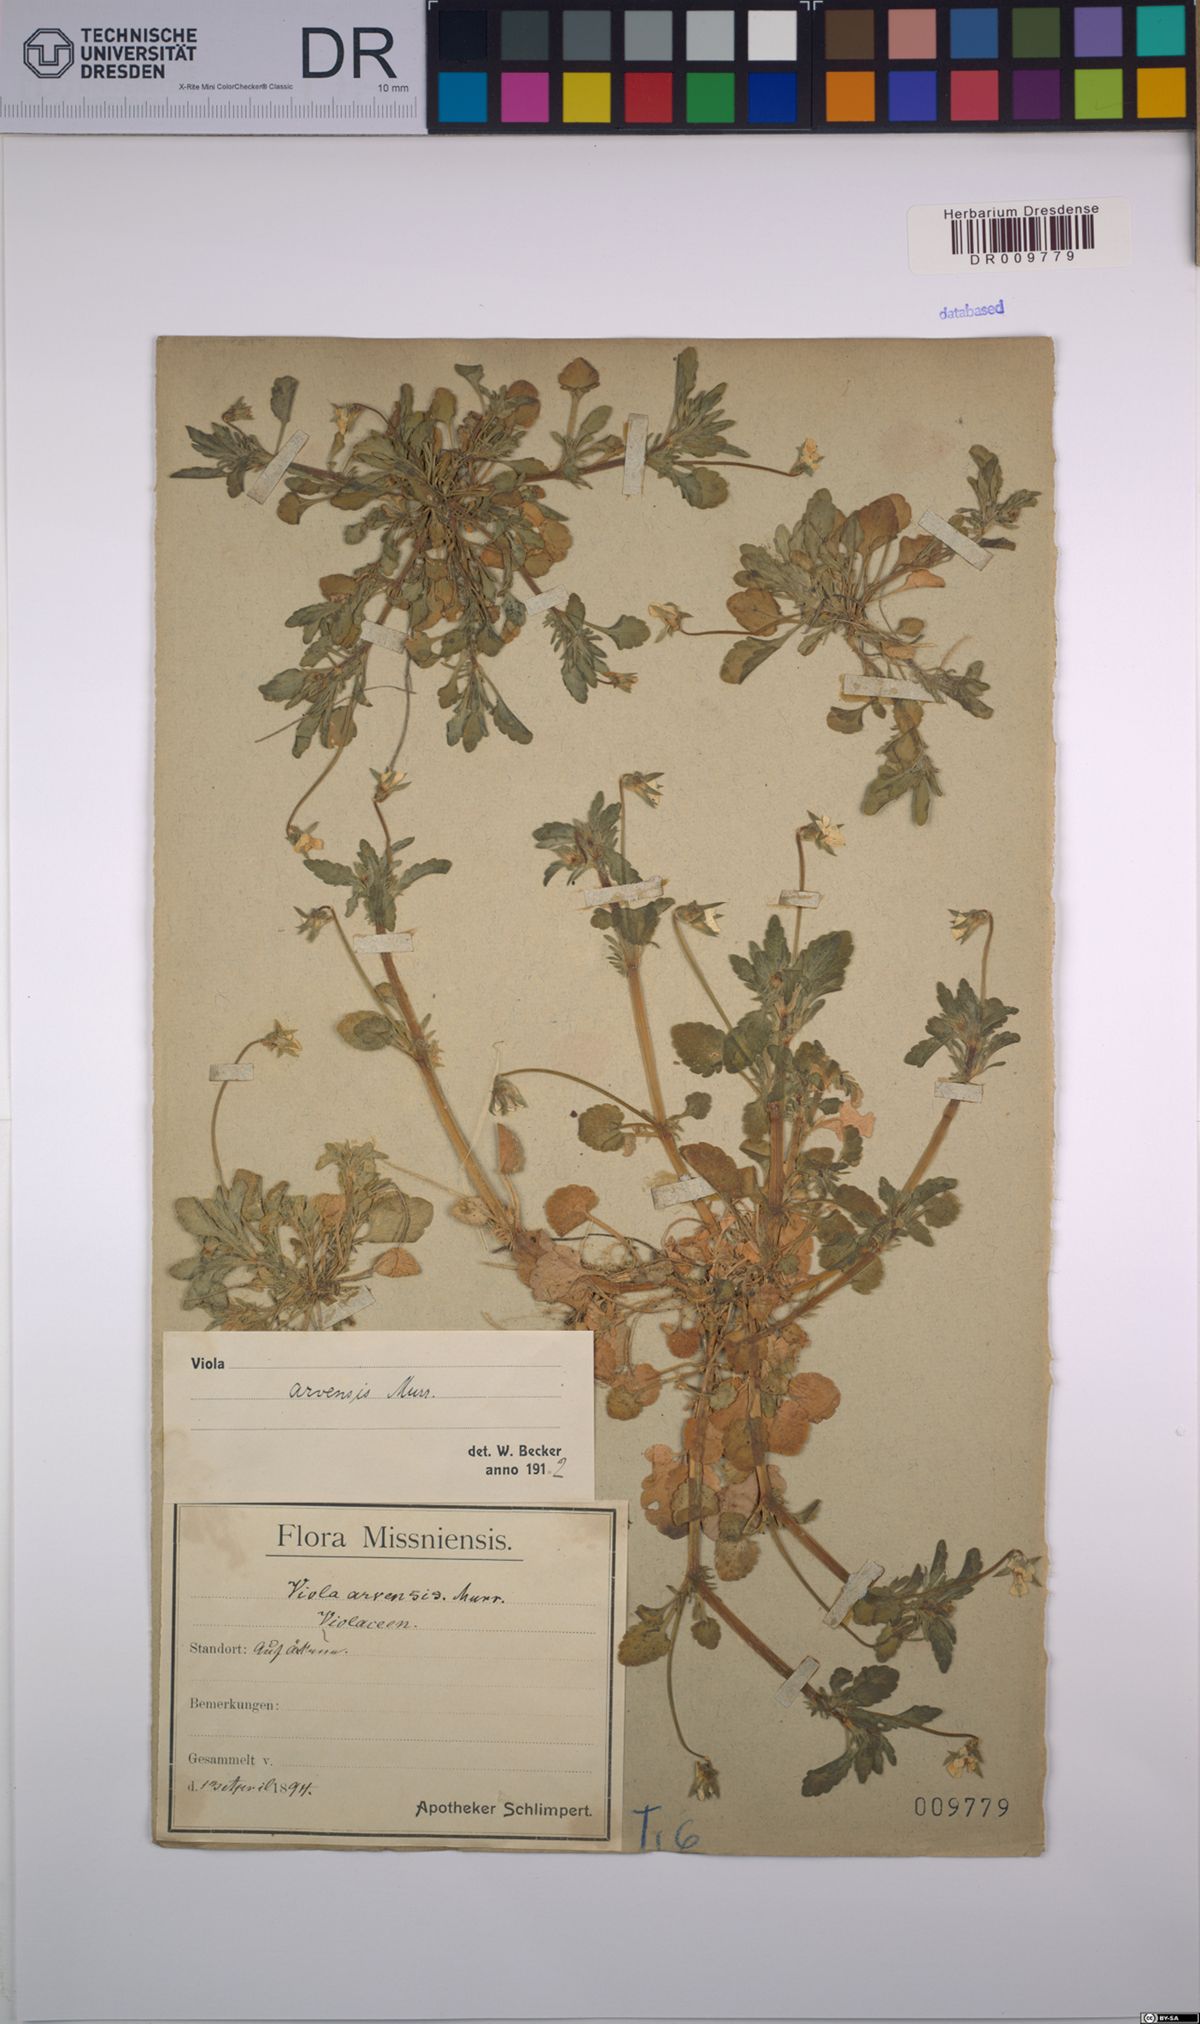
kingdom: Plantae
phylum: Tracheophyta
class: Magnoliopsida
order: Malpighiales
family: Violaceae
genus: Viola
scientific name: Viola arvensis
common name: Field pansy
